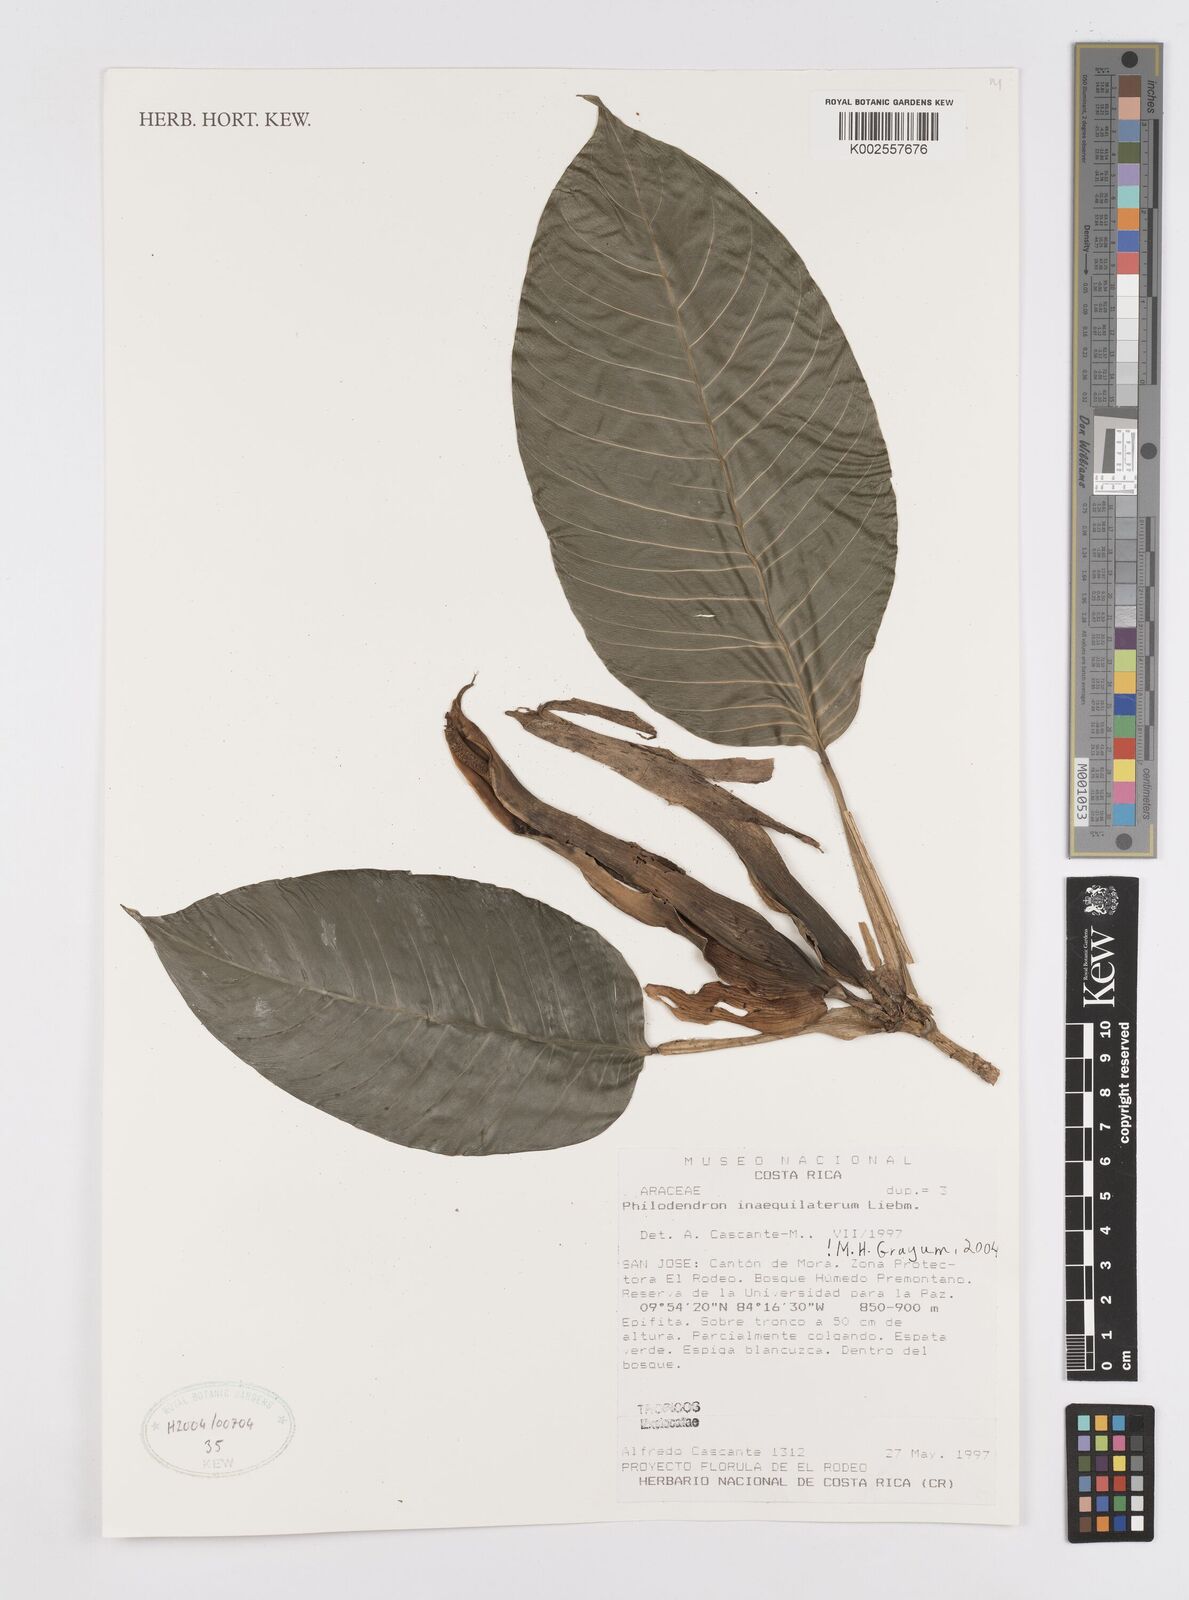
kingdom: Plantae
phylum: Tracheophyta
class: Liliopsida
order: Alismatales
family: Araceae
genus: Philodendron
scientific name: Philodendron inaequilaterum
